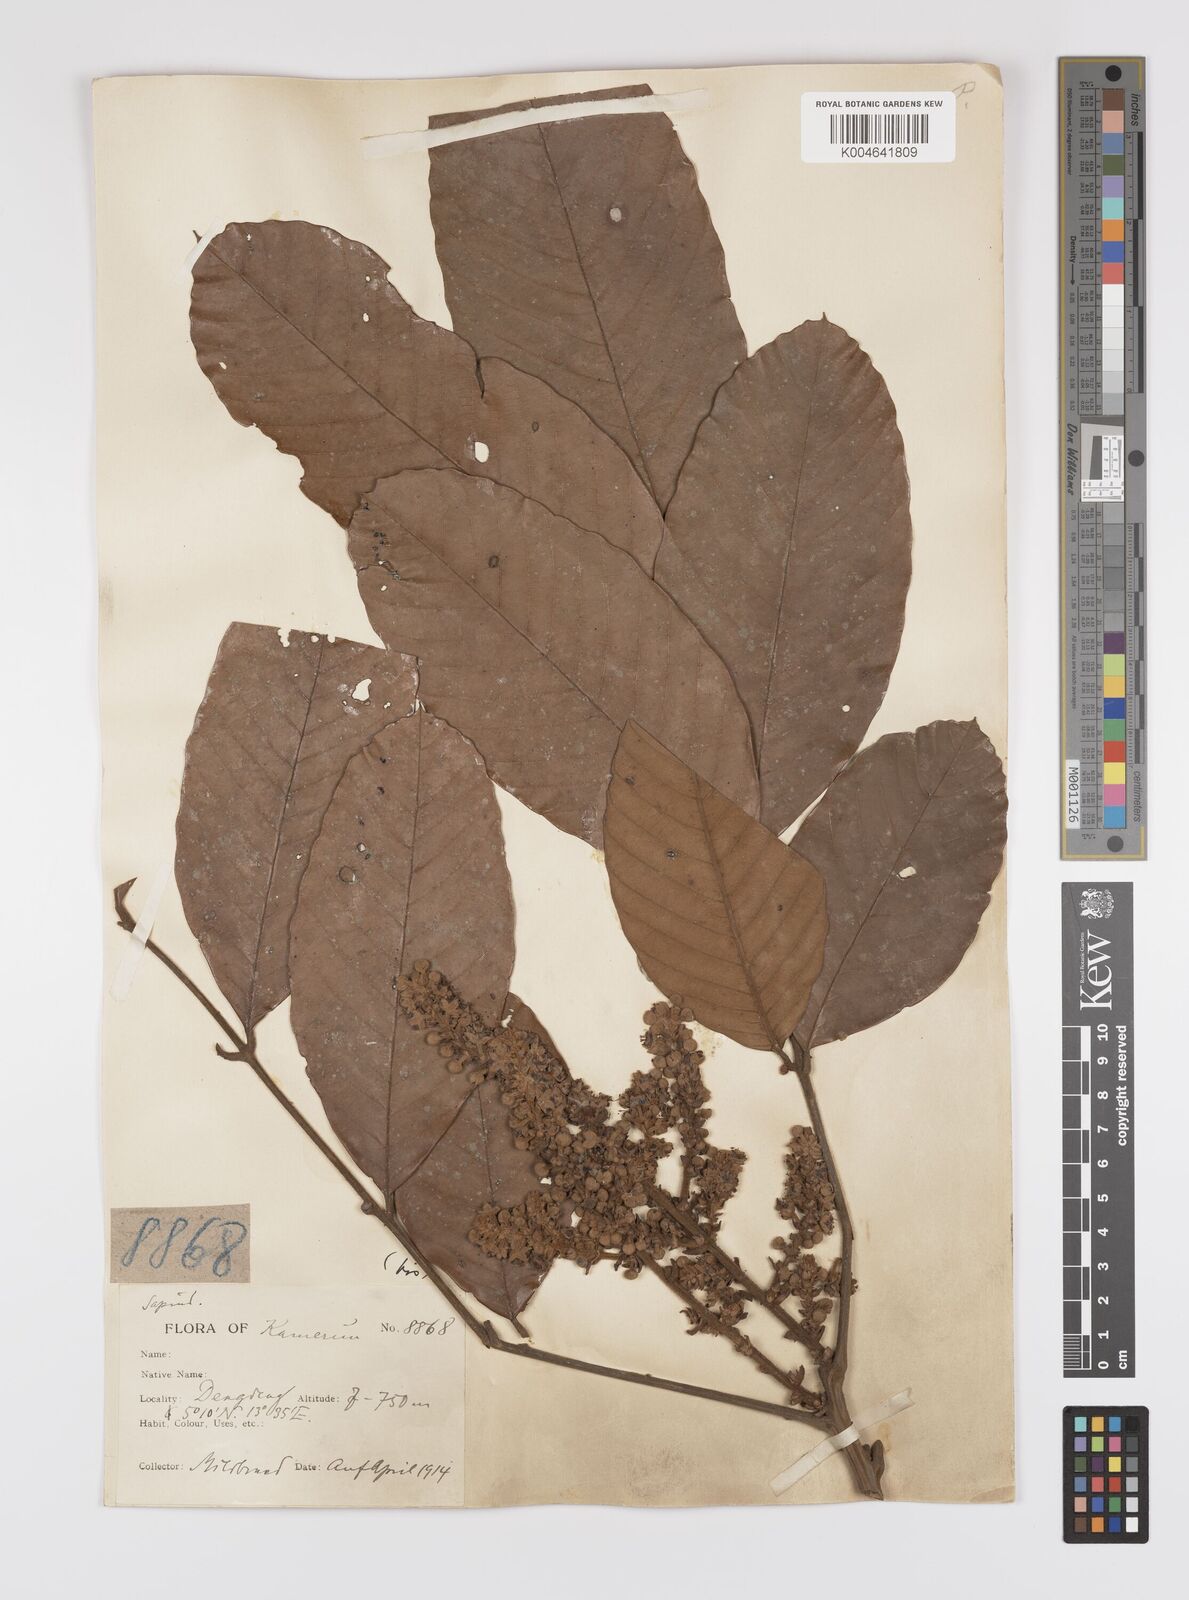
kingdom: Plantae
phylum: Tracheophyta
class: Magnoliopsida
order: Sapindales
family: Sapindaceae
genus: Lychnodiscus
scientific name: Lychnodiscus
